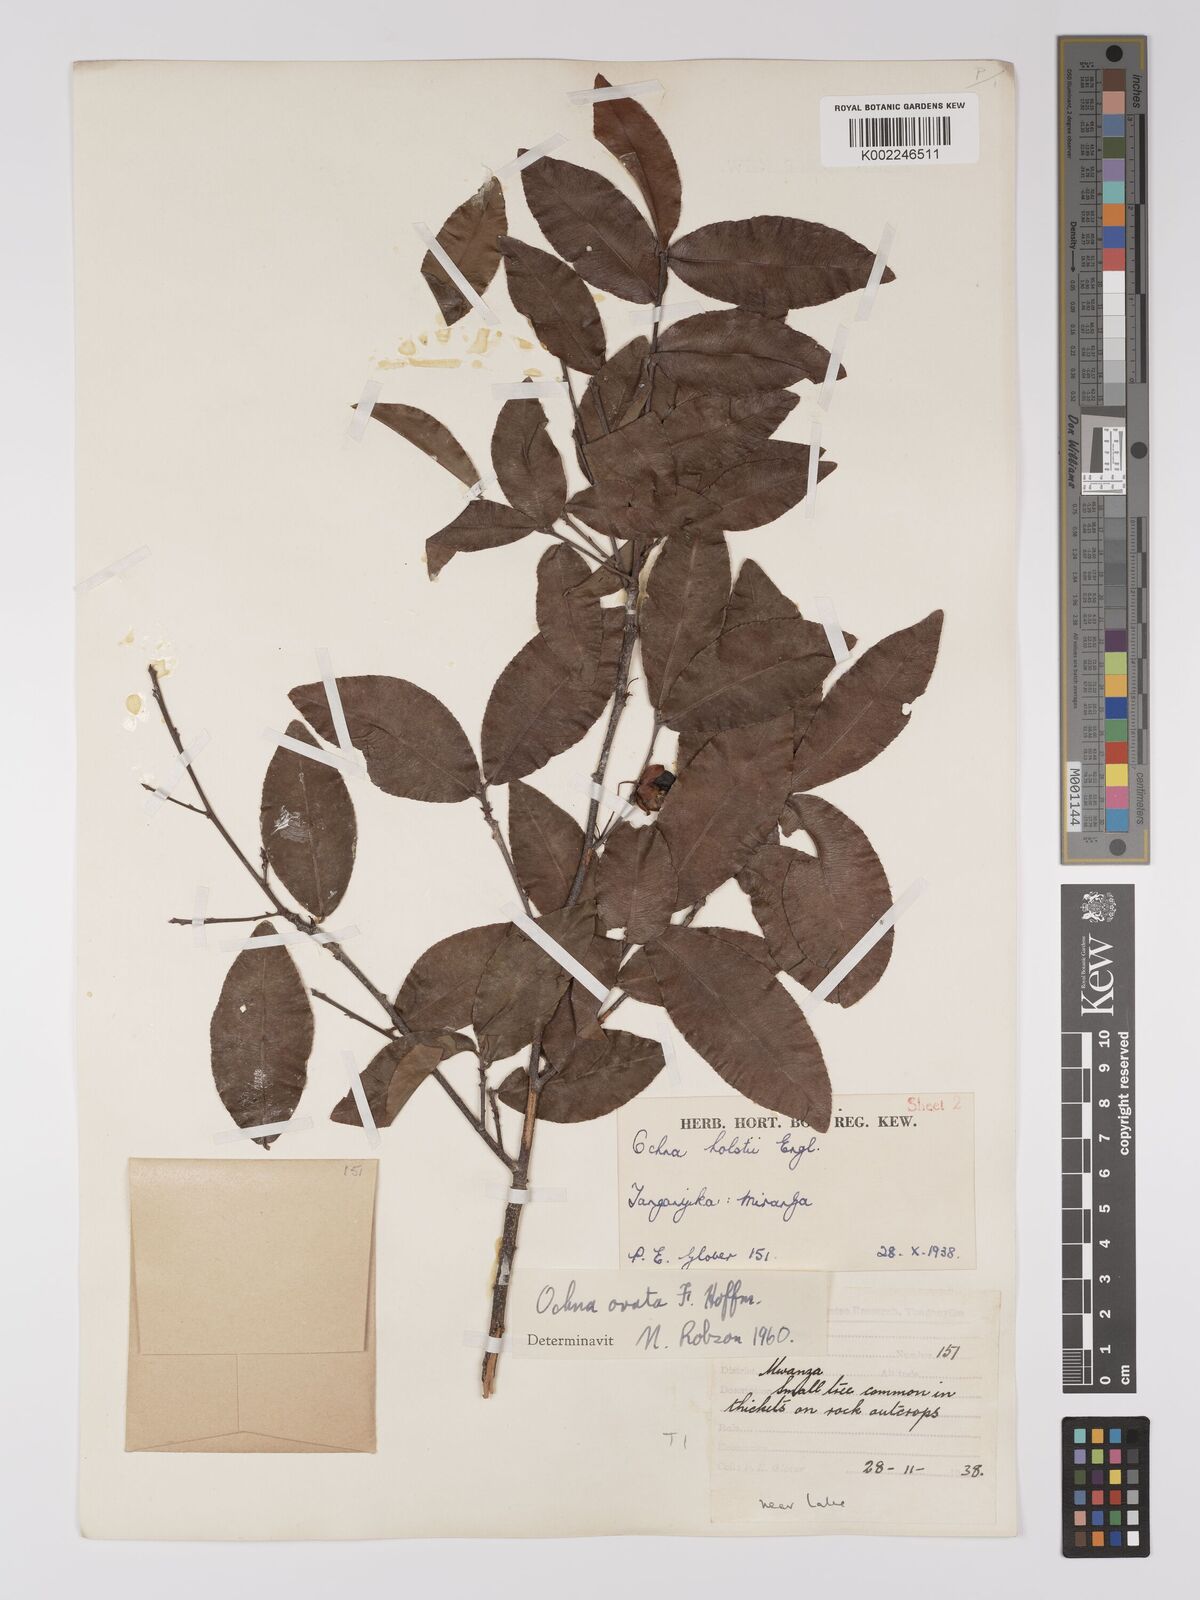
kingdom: Plantae
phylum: Tracheophyta
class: Magnoliopsida
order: Malpighiales
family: Ochnaceae
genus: Ochna
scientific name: Ochna ovata
